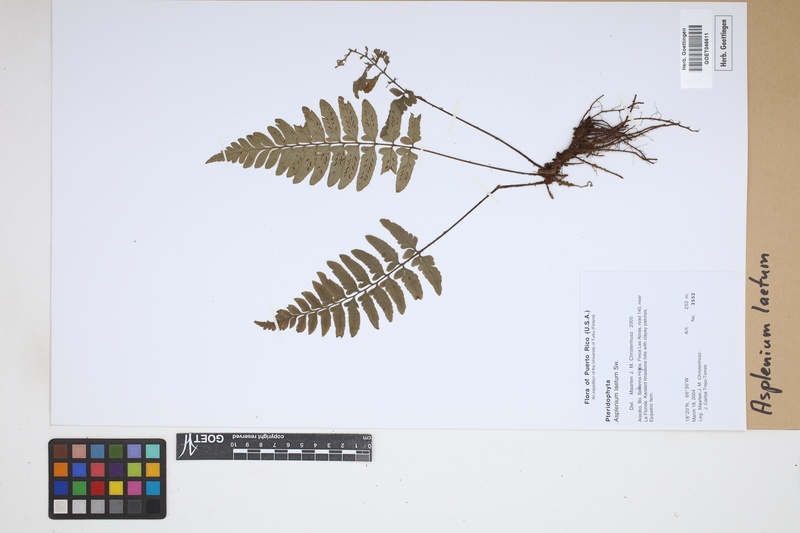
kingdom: Plantae
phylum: Tracheophyta
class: Polypodiopsida
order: Polypodiales
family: Aspleniaceae
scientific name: Aspleniaceae
